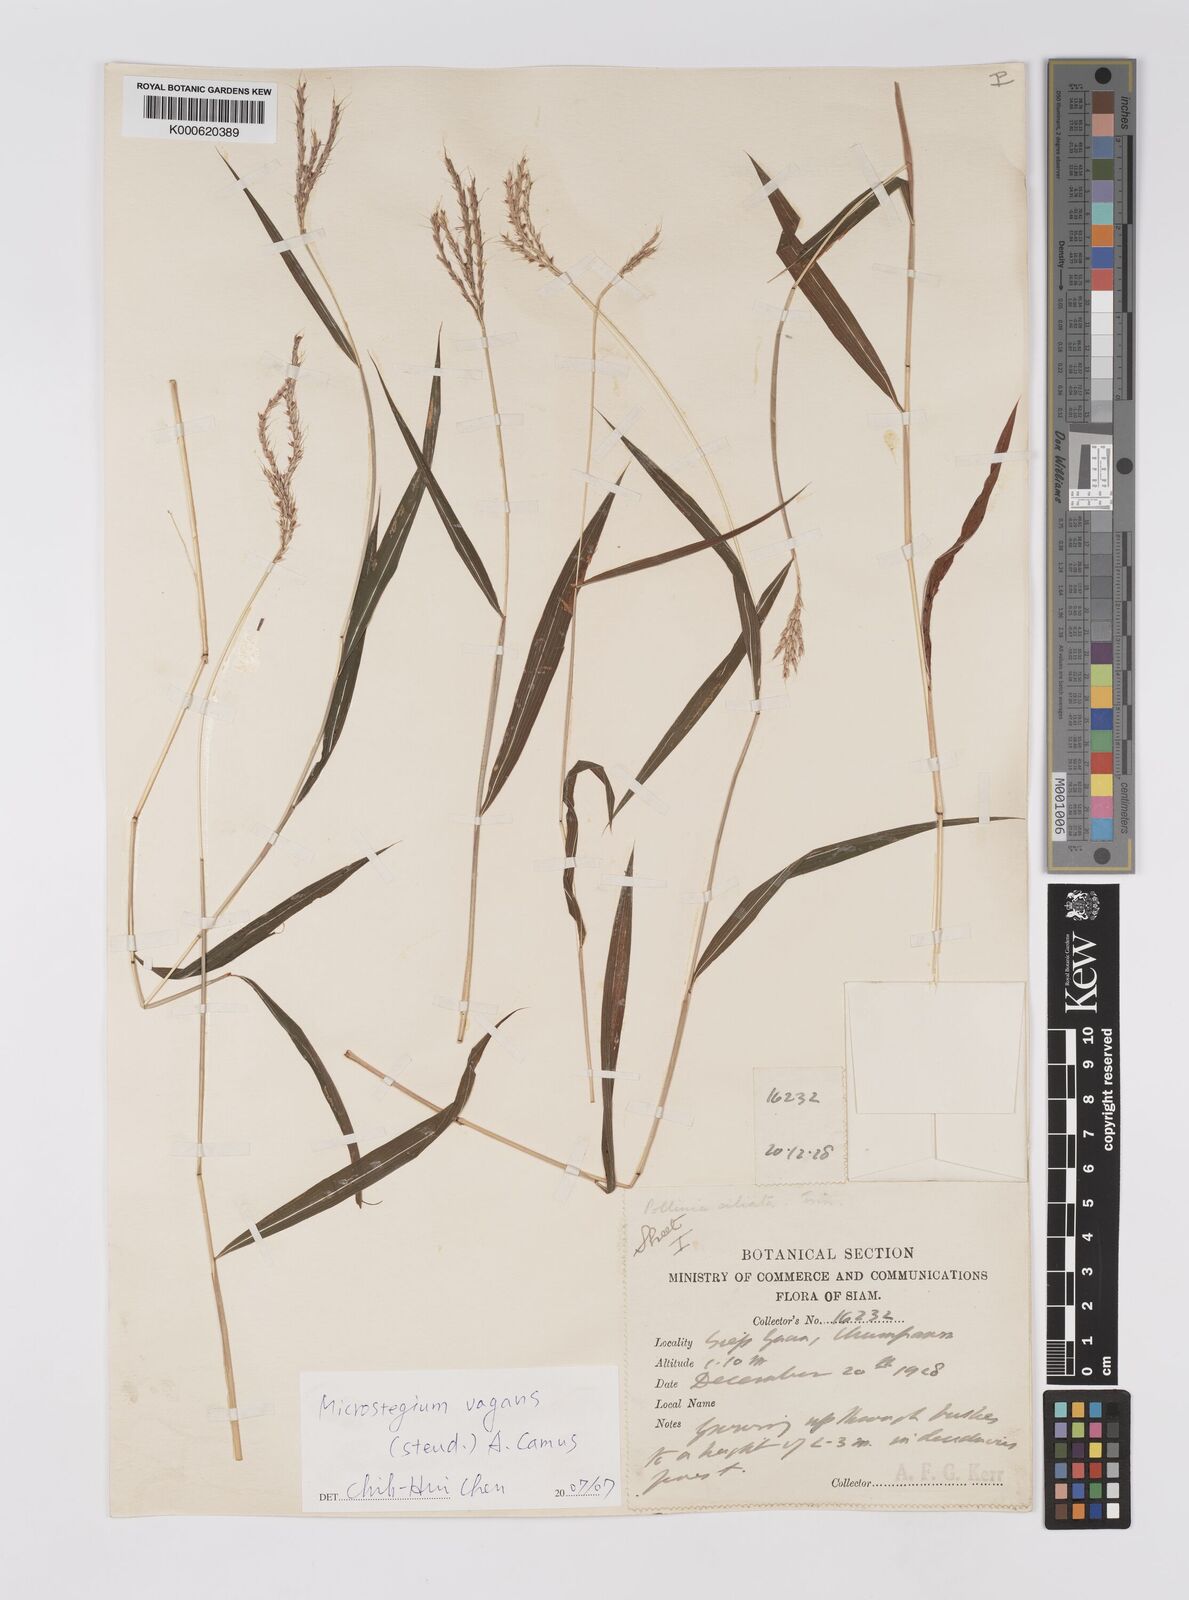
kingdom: Plantae
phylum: Tracheophyta
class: Liliopsida
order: Poales
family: Poaceae
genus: Microstegium
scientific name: Microstegium fasciculatum
